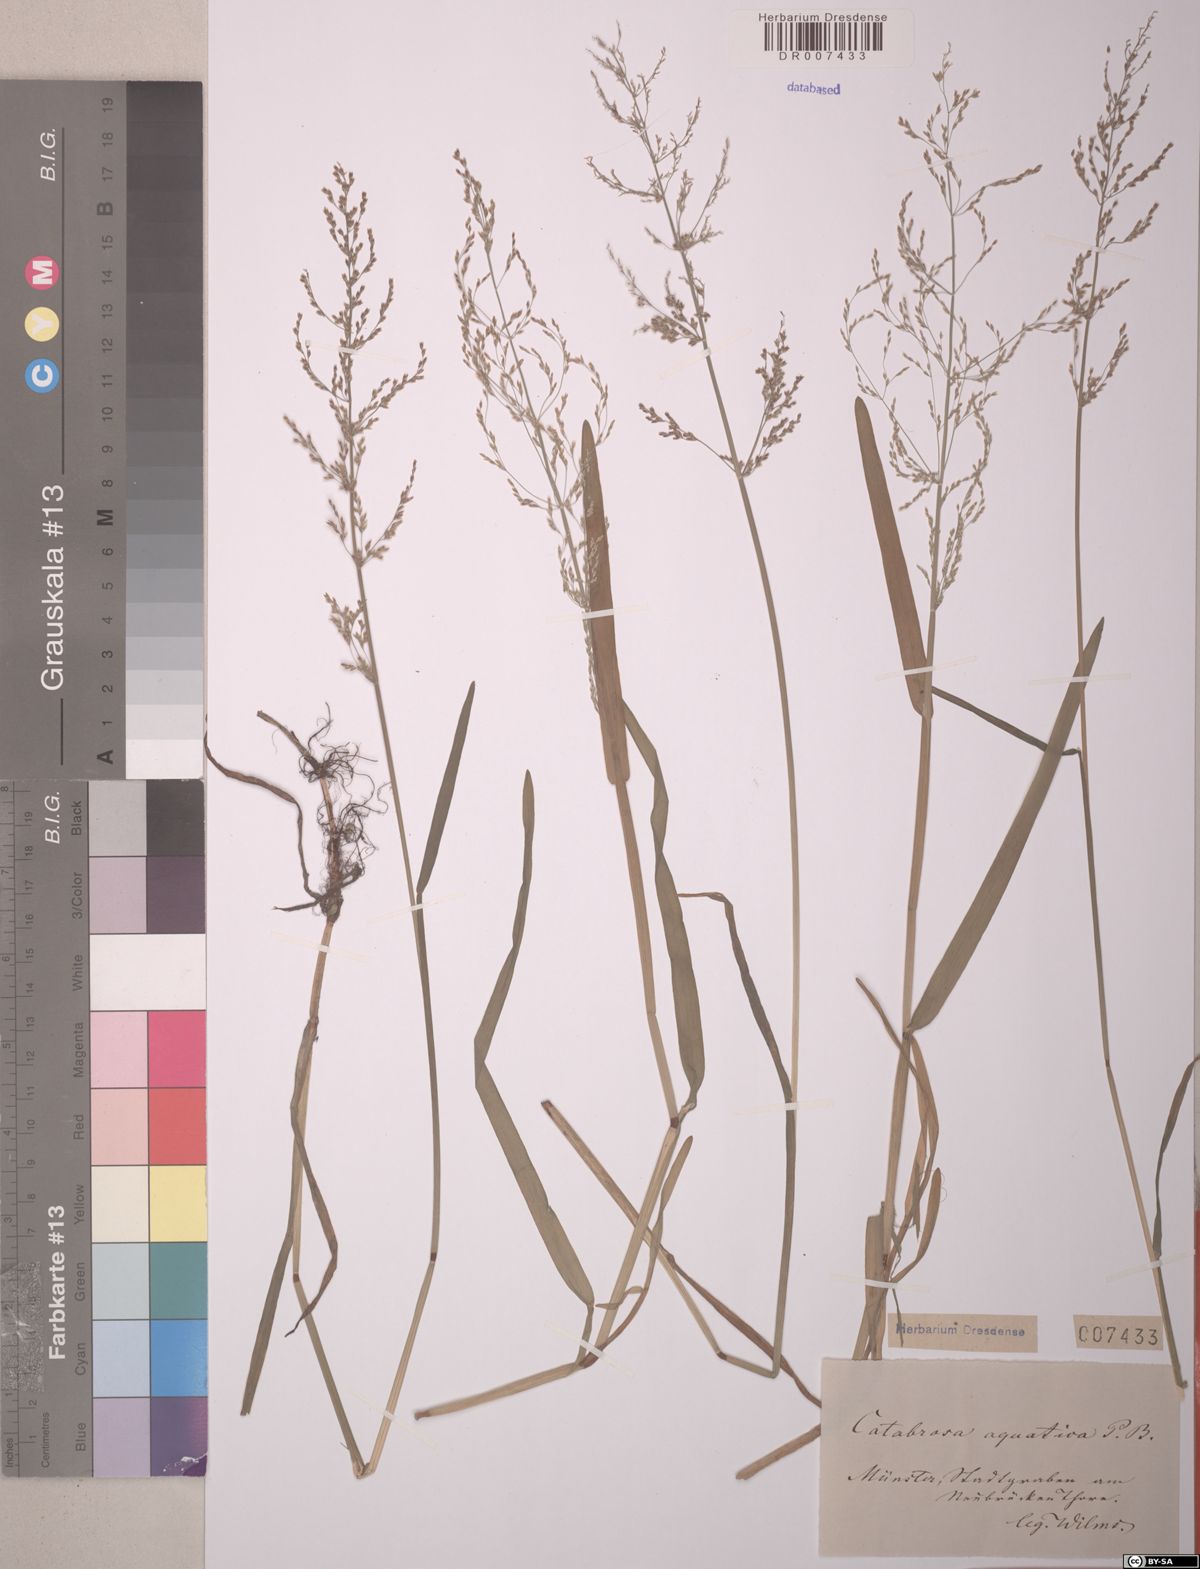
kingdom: Plantae
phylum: Tracheophyta
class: Liliopsida
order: Poales
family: Poaceae
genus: Catabrosa
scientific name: Catabrosa aquatica
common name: Whorl-grass
